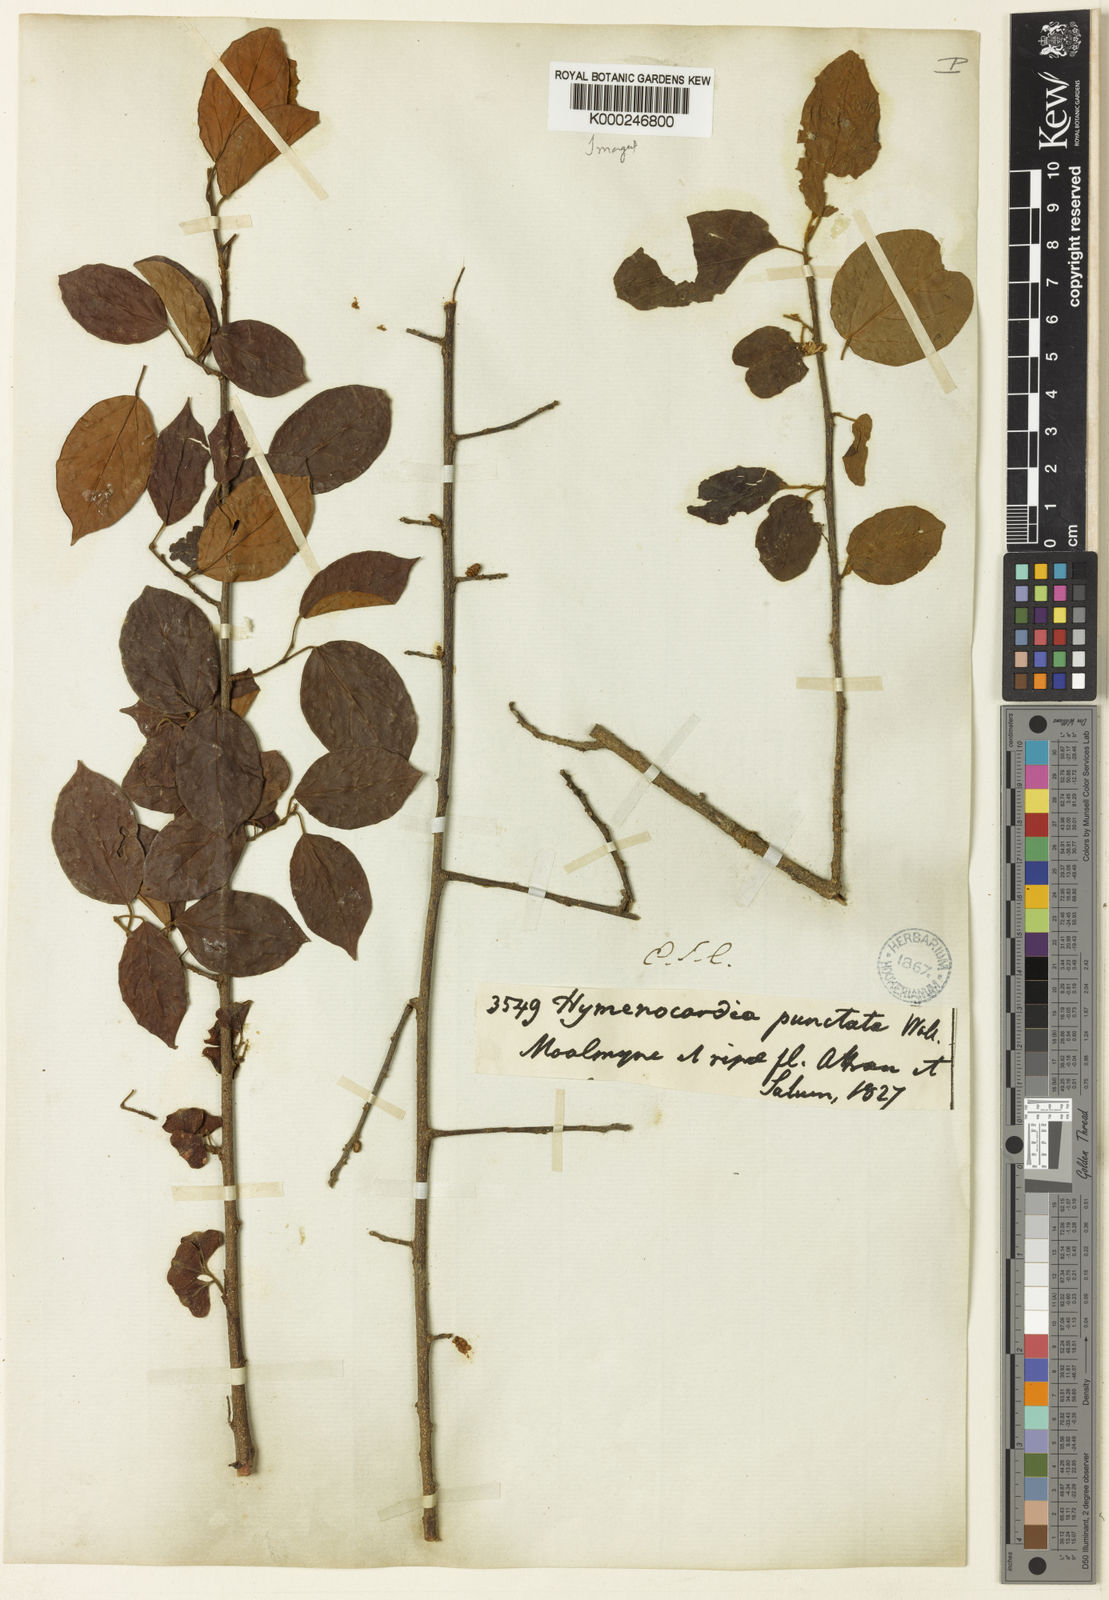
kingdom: Plantae
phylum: Tracheophyta
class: Magnoliopsida
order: Malpighiales
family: Phyllanthaceae
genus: Hymenocardia
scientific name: Hymenocardia punctata
